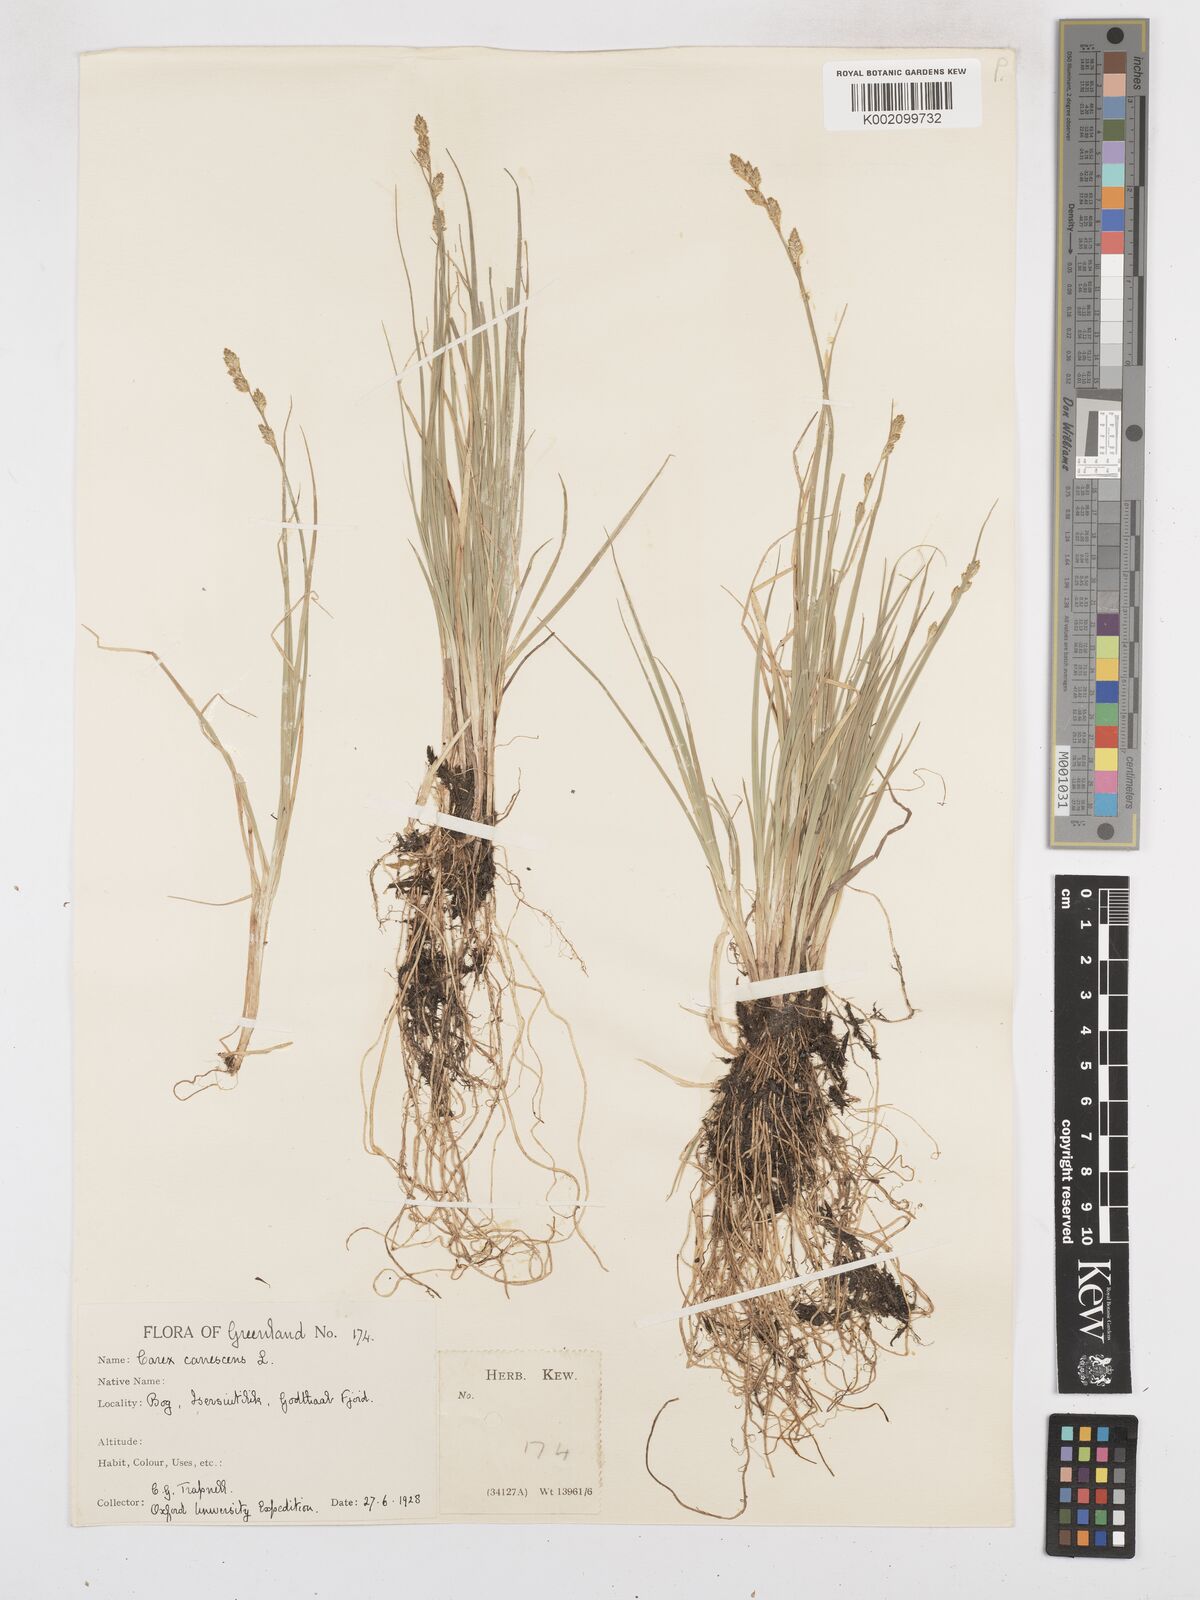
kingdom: Plantae
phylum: Tracheophyta
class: Liliopsida
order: Poales
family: Cyperaceae
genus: Carex
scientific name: Carex curta
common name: White sedge
